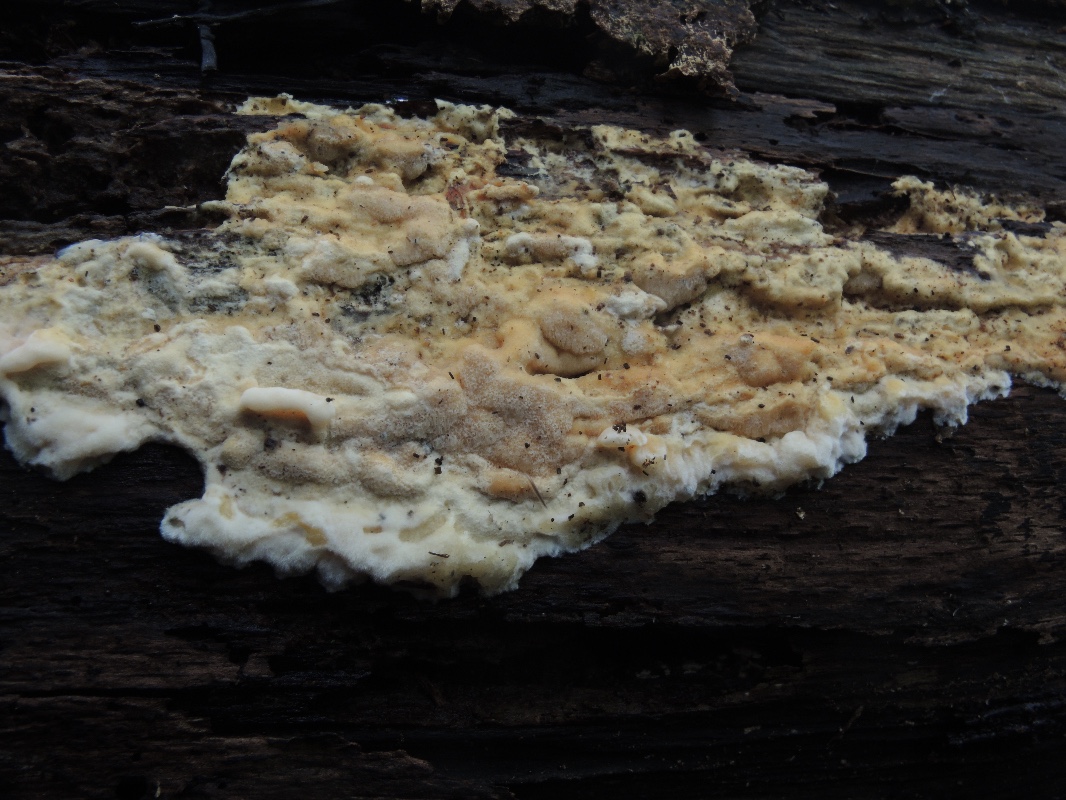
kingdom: Fungi
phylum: Basidiomycota
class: Agaricomycetes
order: Polyporales
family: Steccherinaceae
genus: Antrodiella
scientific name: Antrodiella mentschulensis
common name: abrikosporesvamp
